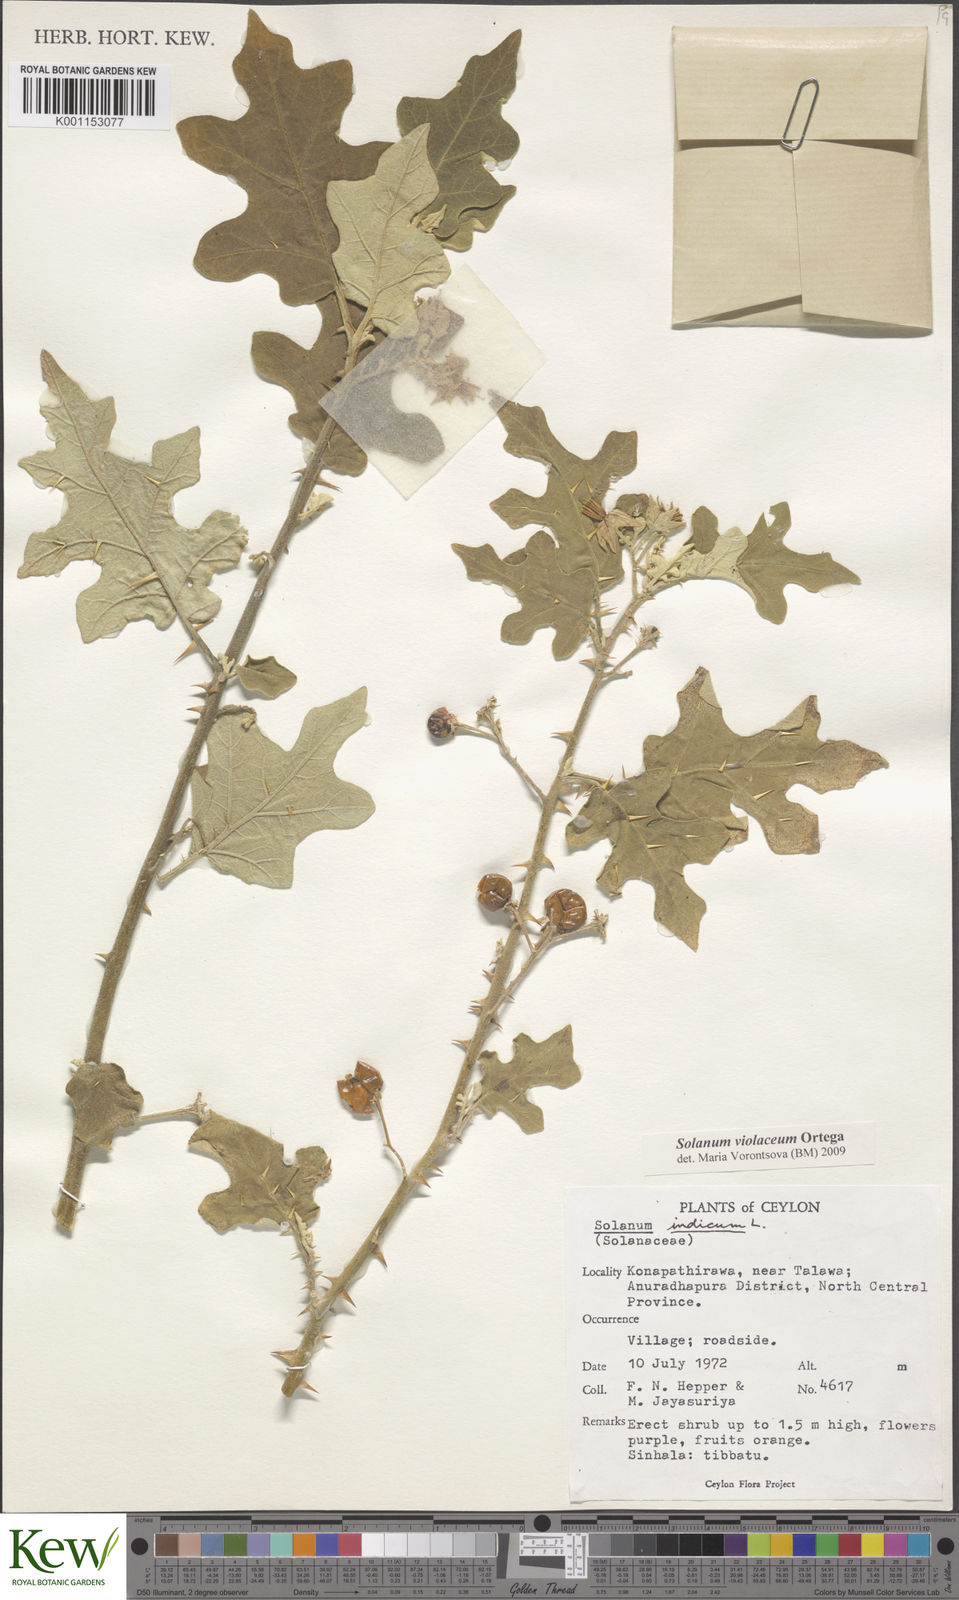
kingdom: Plantae
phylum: Tracheophyta
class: Magnoliopsida
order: Solanales
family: Solanaceae
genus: Solanum
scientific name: Solanum violaceum
